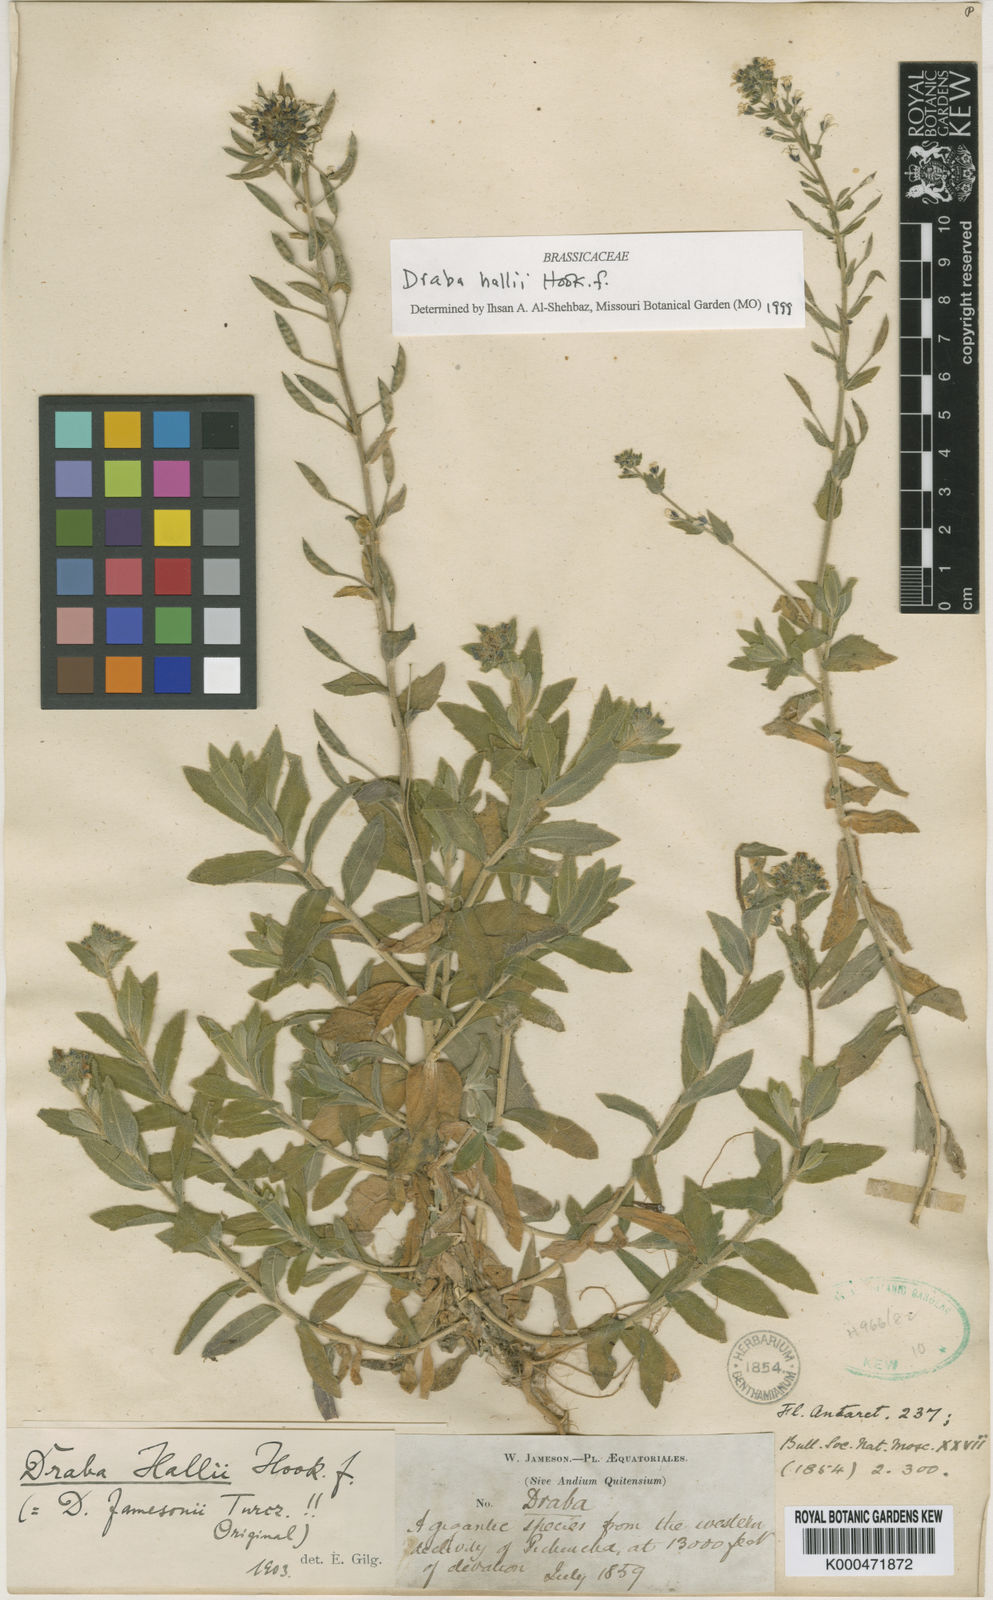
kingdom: Plantae
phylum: Tracheophyta
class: Magnoliopsida
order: Brassicales
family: Brassicaceae
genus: Draba
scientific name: Draba hallii
